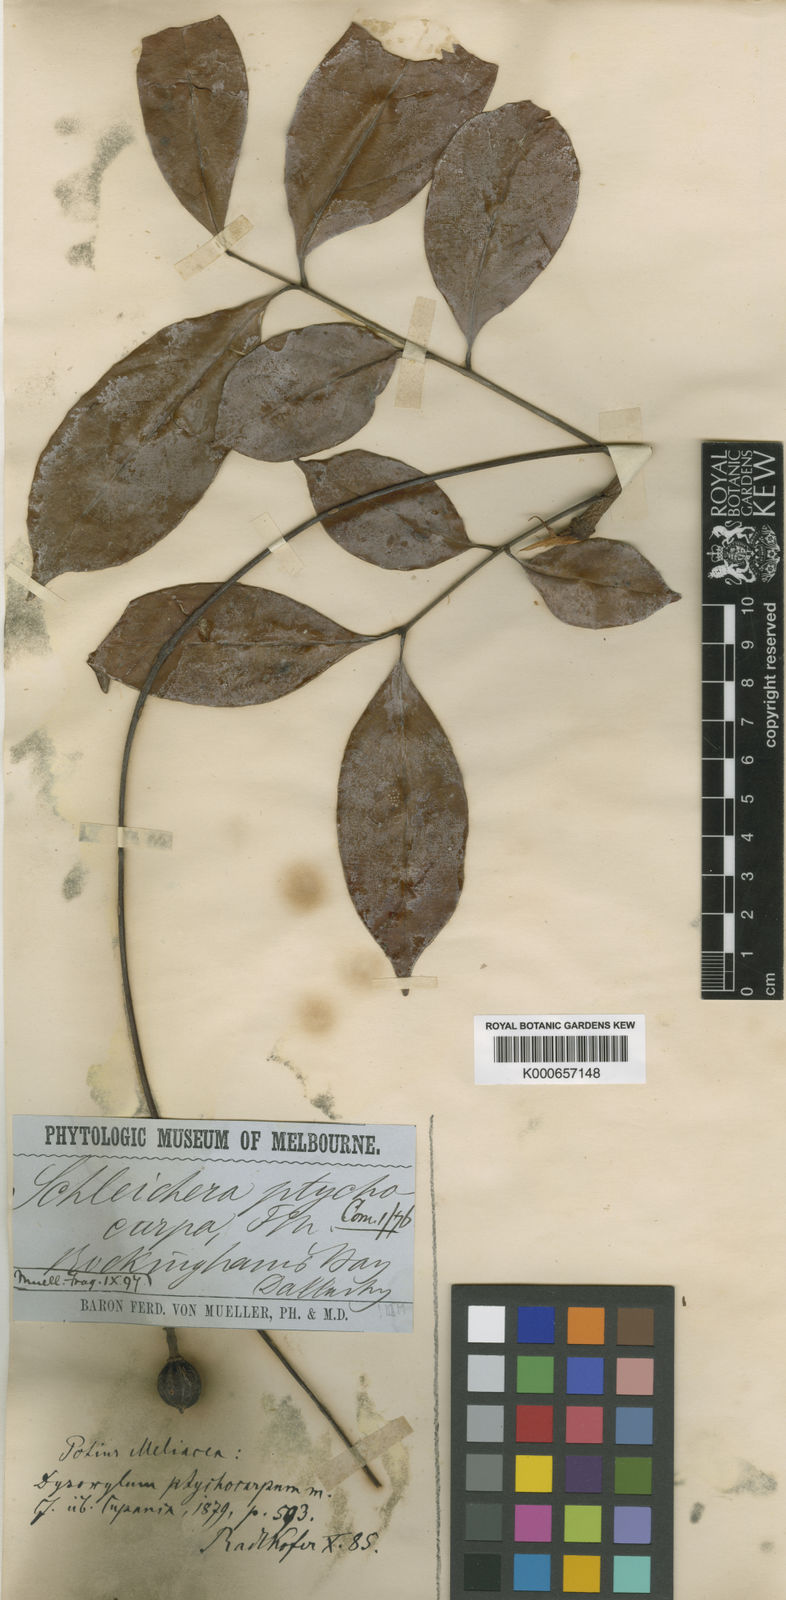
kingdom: Plantae
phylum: Tracheophyta
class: Magnoliopsida
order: Sapindales
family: Meliaceae
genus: Prasoxylon
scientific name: Prasoxylon klanderi
